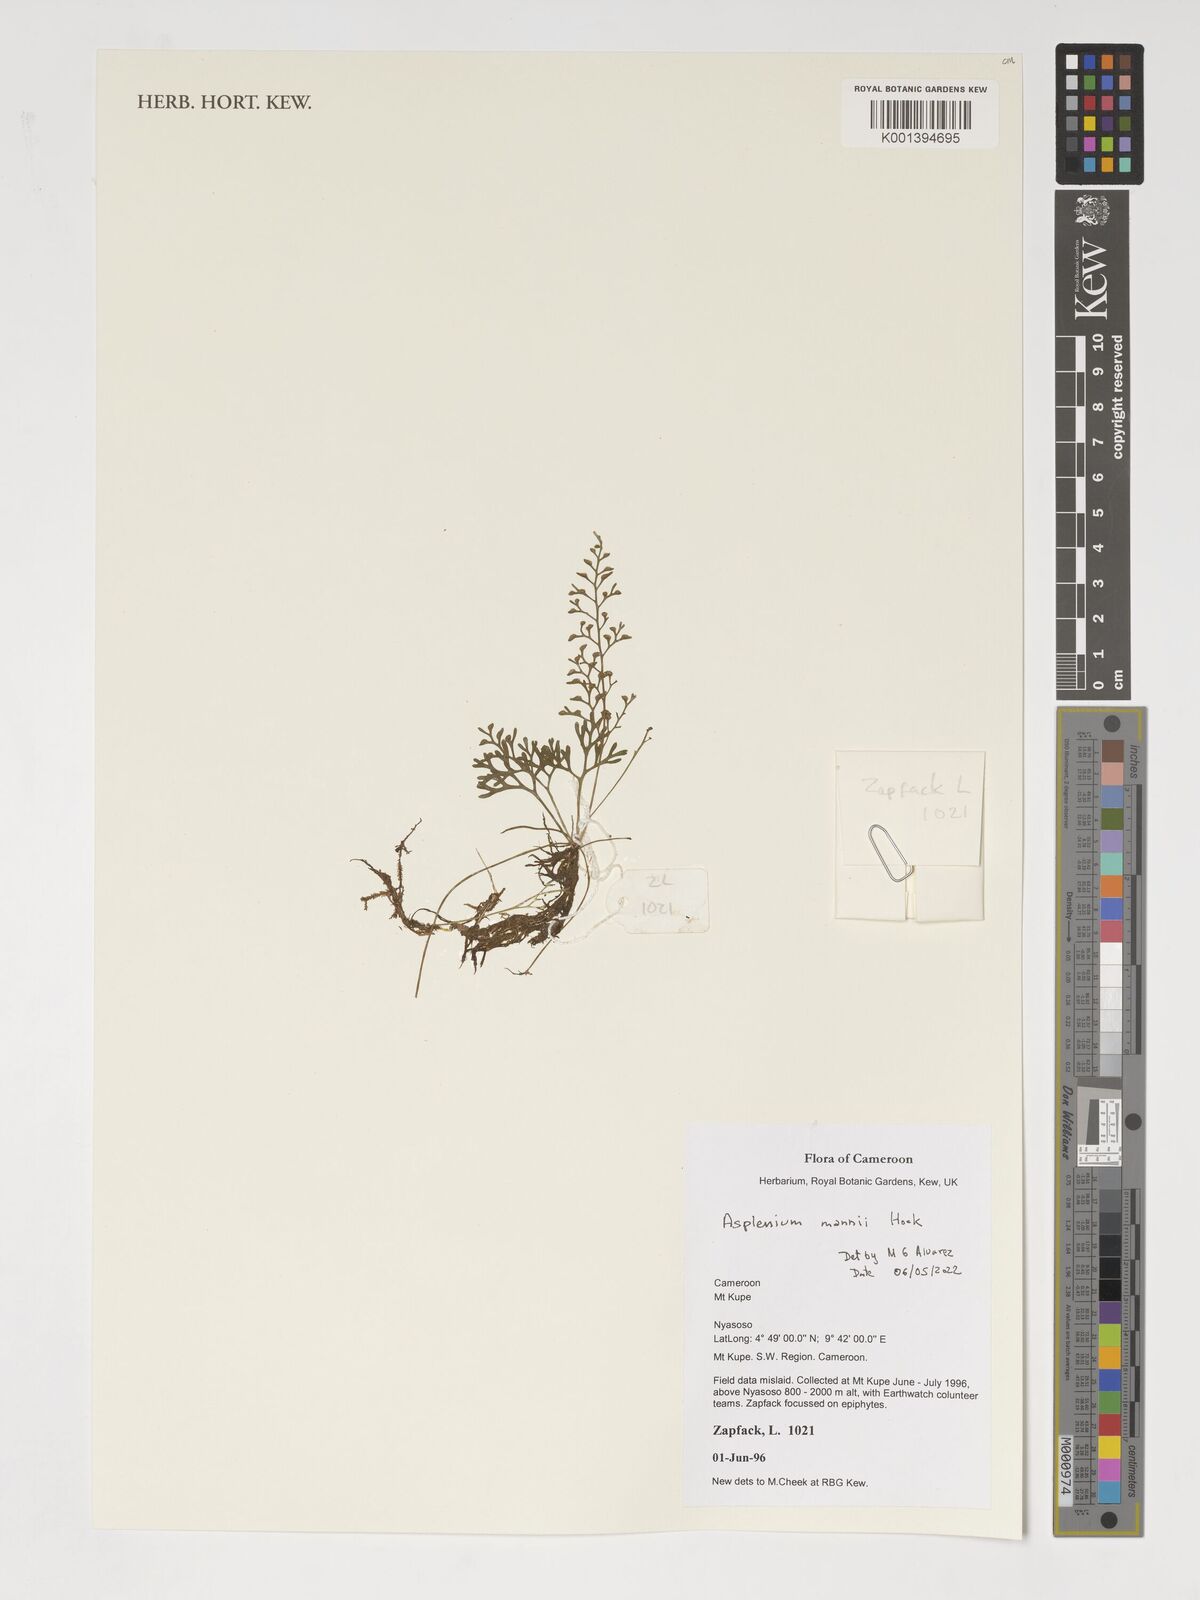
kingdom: Plantae
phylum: Tracheophyta
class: Polypodiopsida
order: Polypodiales
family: Aspleniaceae
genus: Asplenium
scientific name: Asplenium mannii
